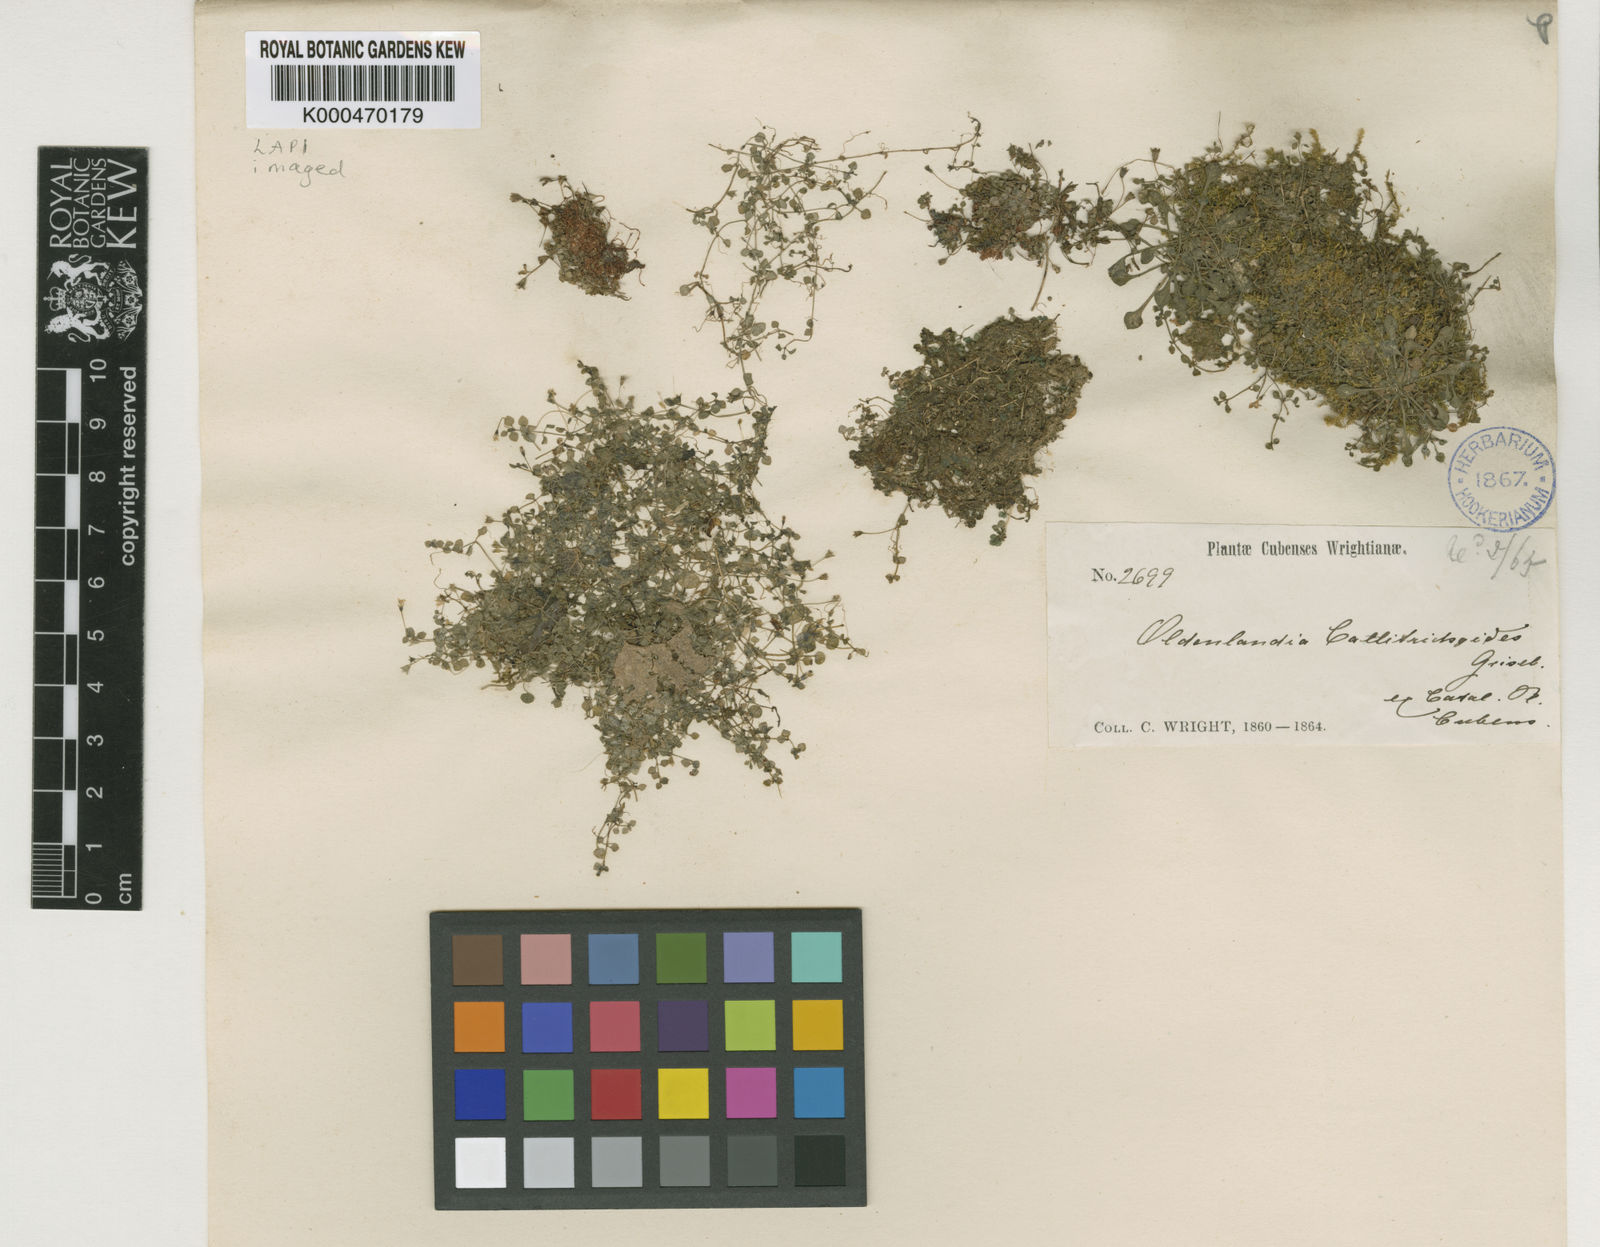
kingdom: Plantae
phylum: Tracheophyta
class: Magnoliopsida
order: Gentianales
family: Rubiaceae
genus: Oldenlandiopsis
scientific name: Oldenlandiopsis callitrichoides
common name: Creeping-bluet
